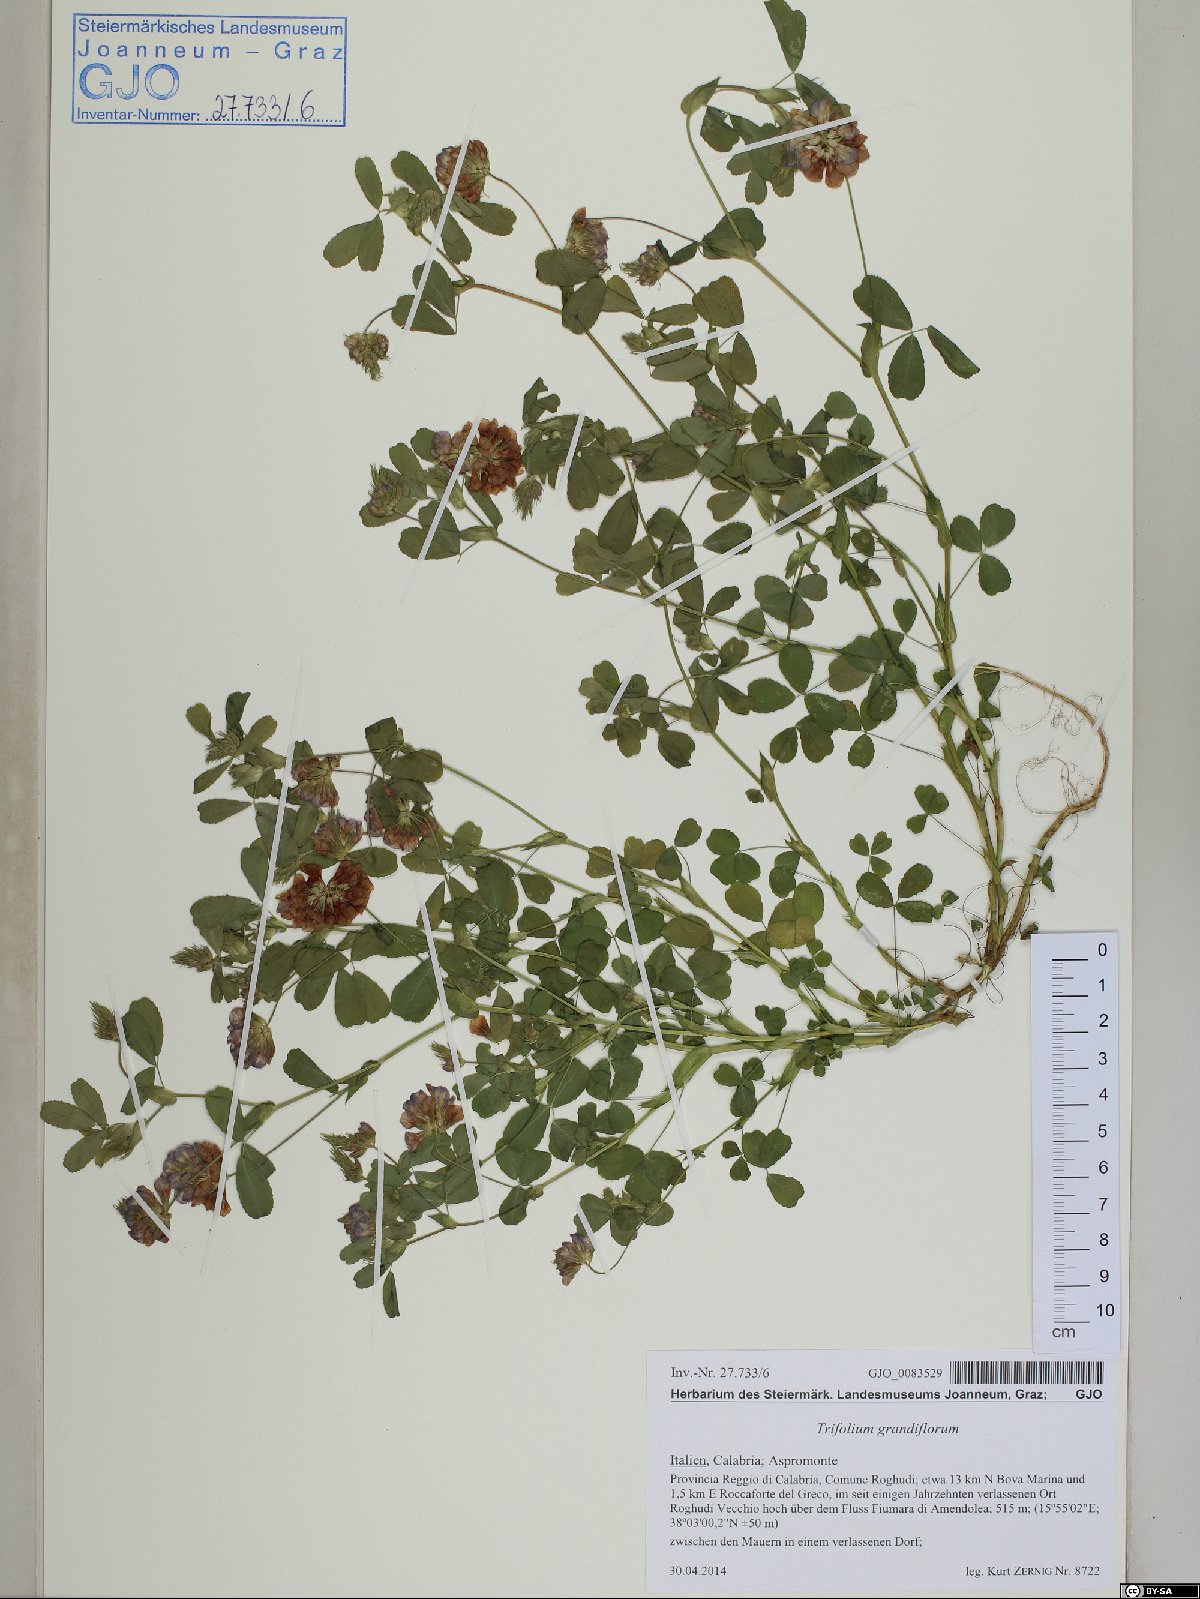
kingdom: Plantae
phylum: Tracheophyta
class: Magnoliopsida
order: Fabales
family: Fabaceae
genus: Trifolium
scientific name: Trifolium grandiflorum
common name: Large-flower hop clover
